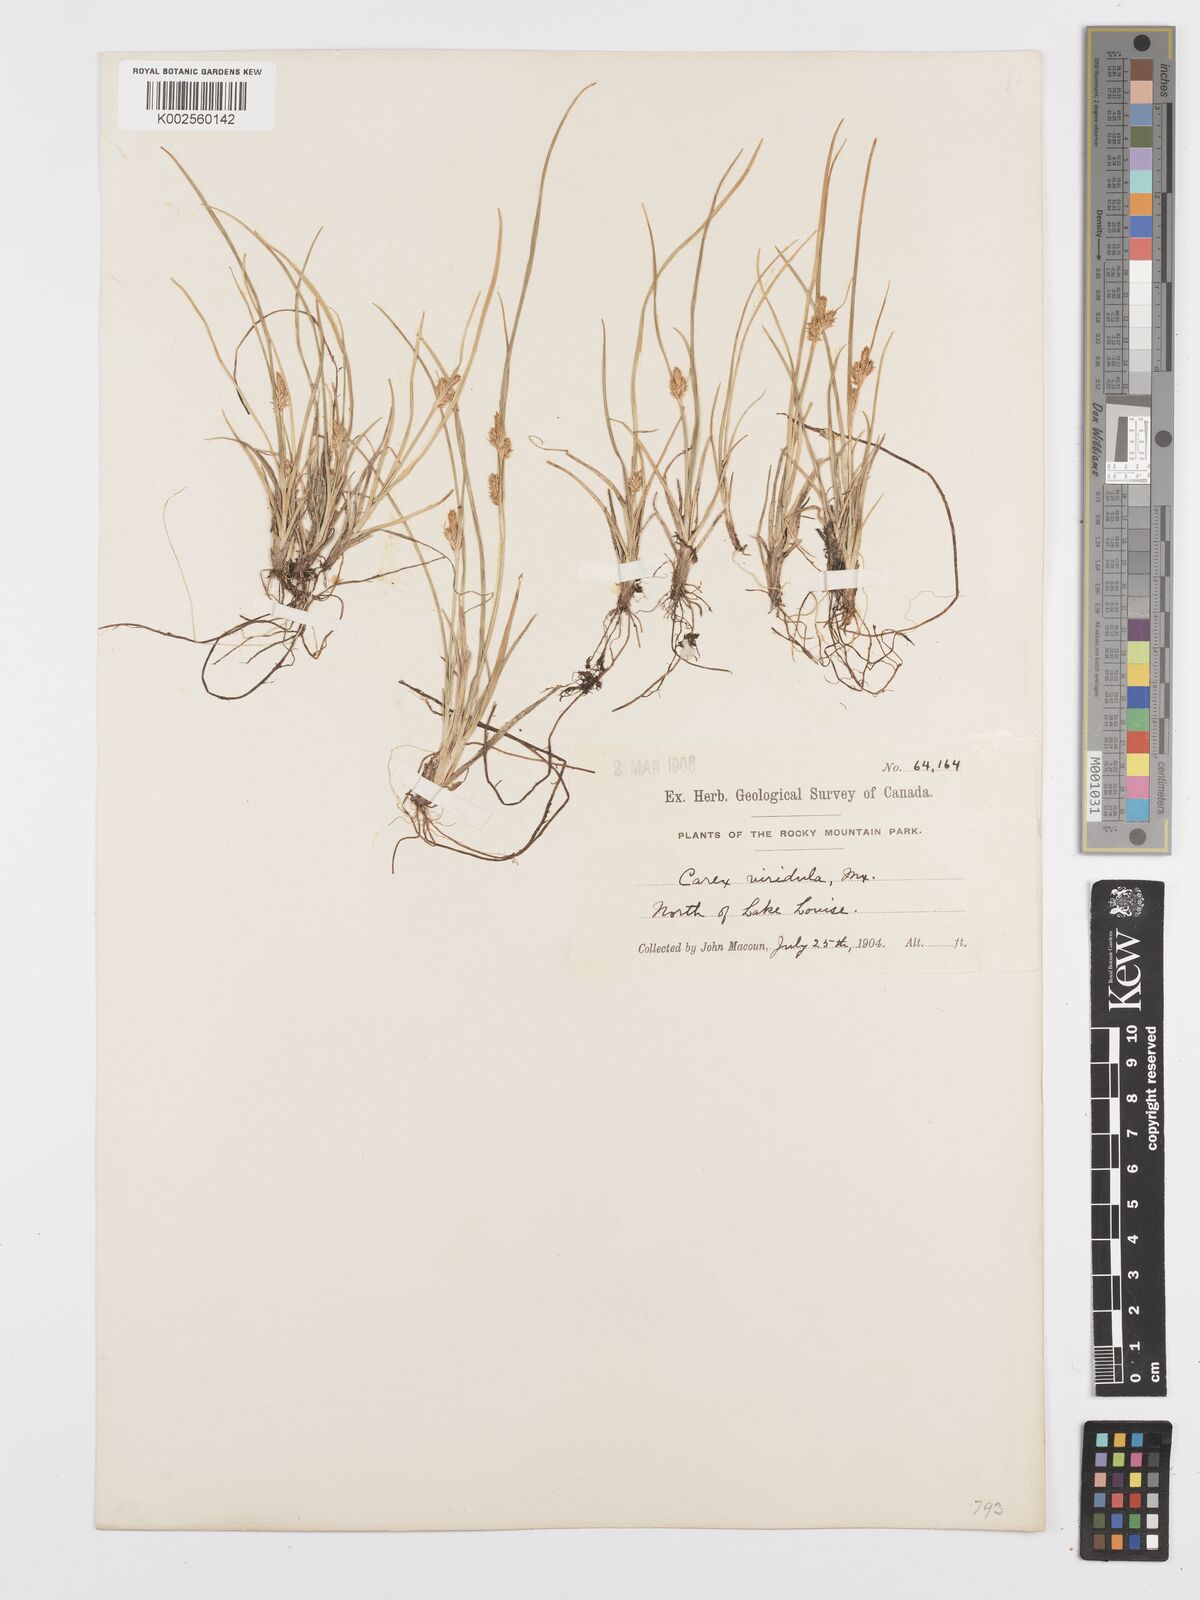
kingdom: Plantae
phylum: Tracheophyta
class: Liliopsida
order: Poales
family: Cyperaceae
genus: Carex
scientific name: Carex oederi
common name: Common & small-fruited yellow-sedge
